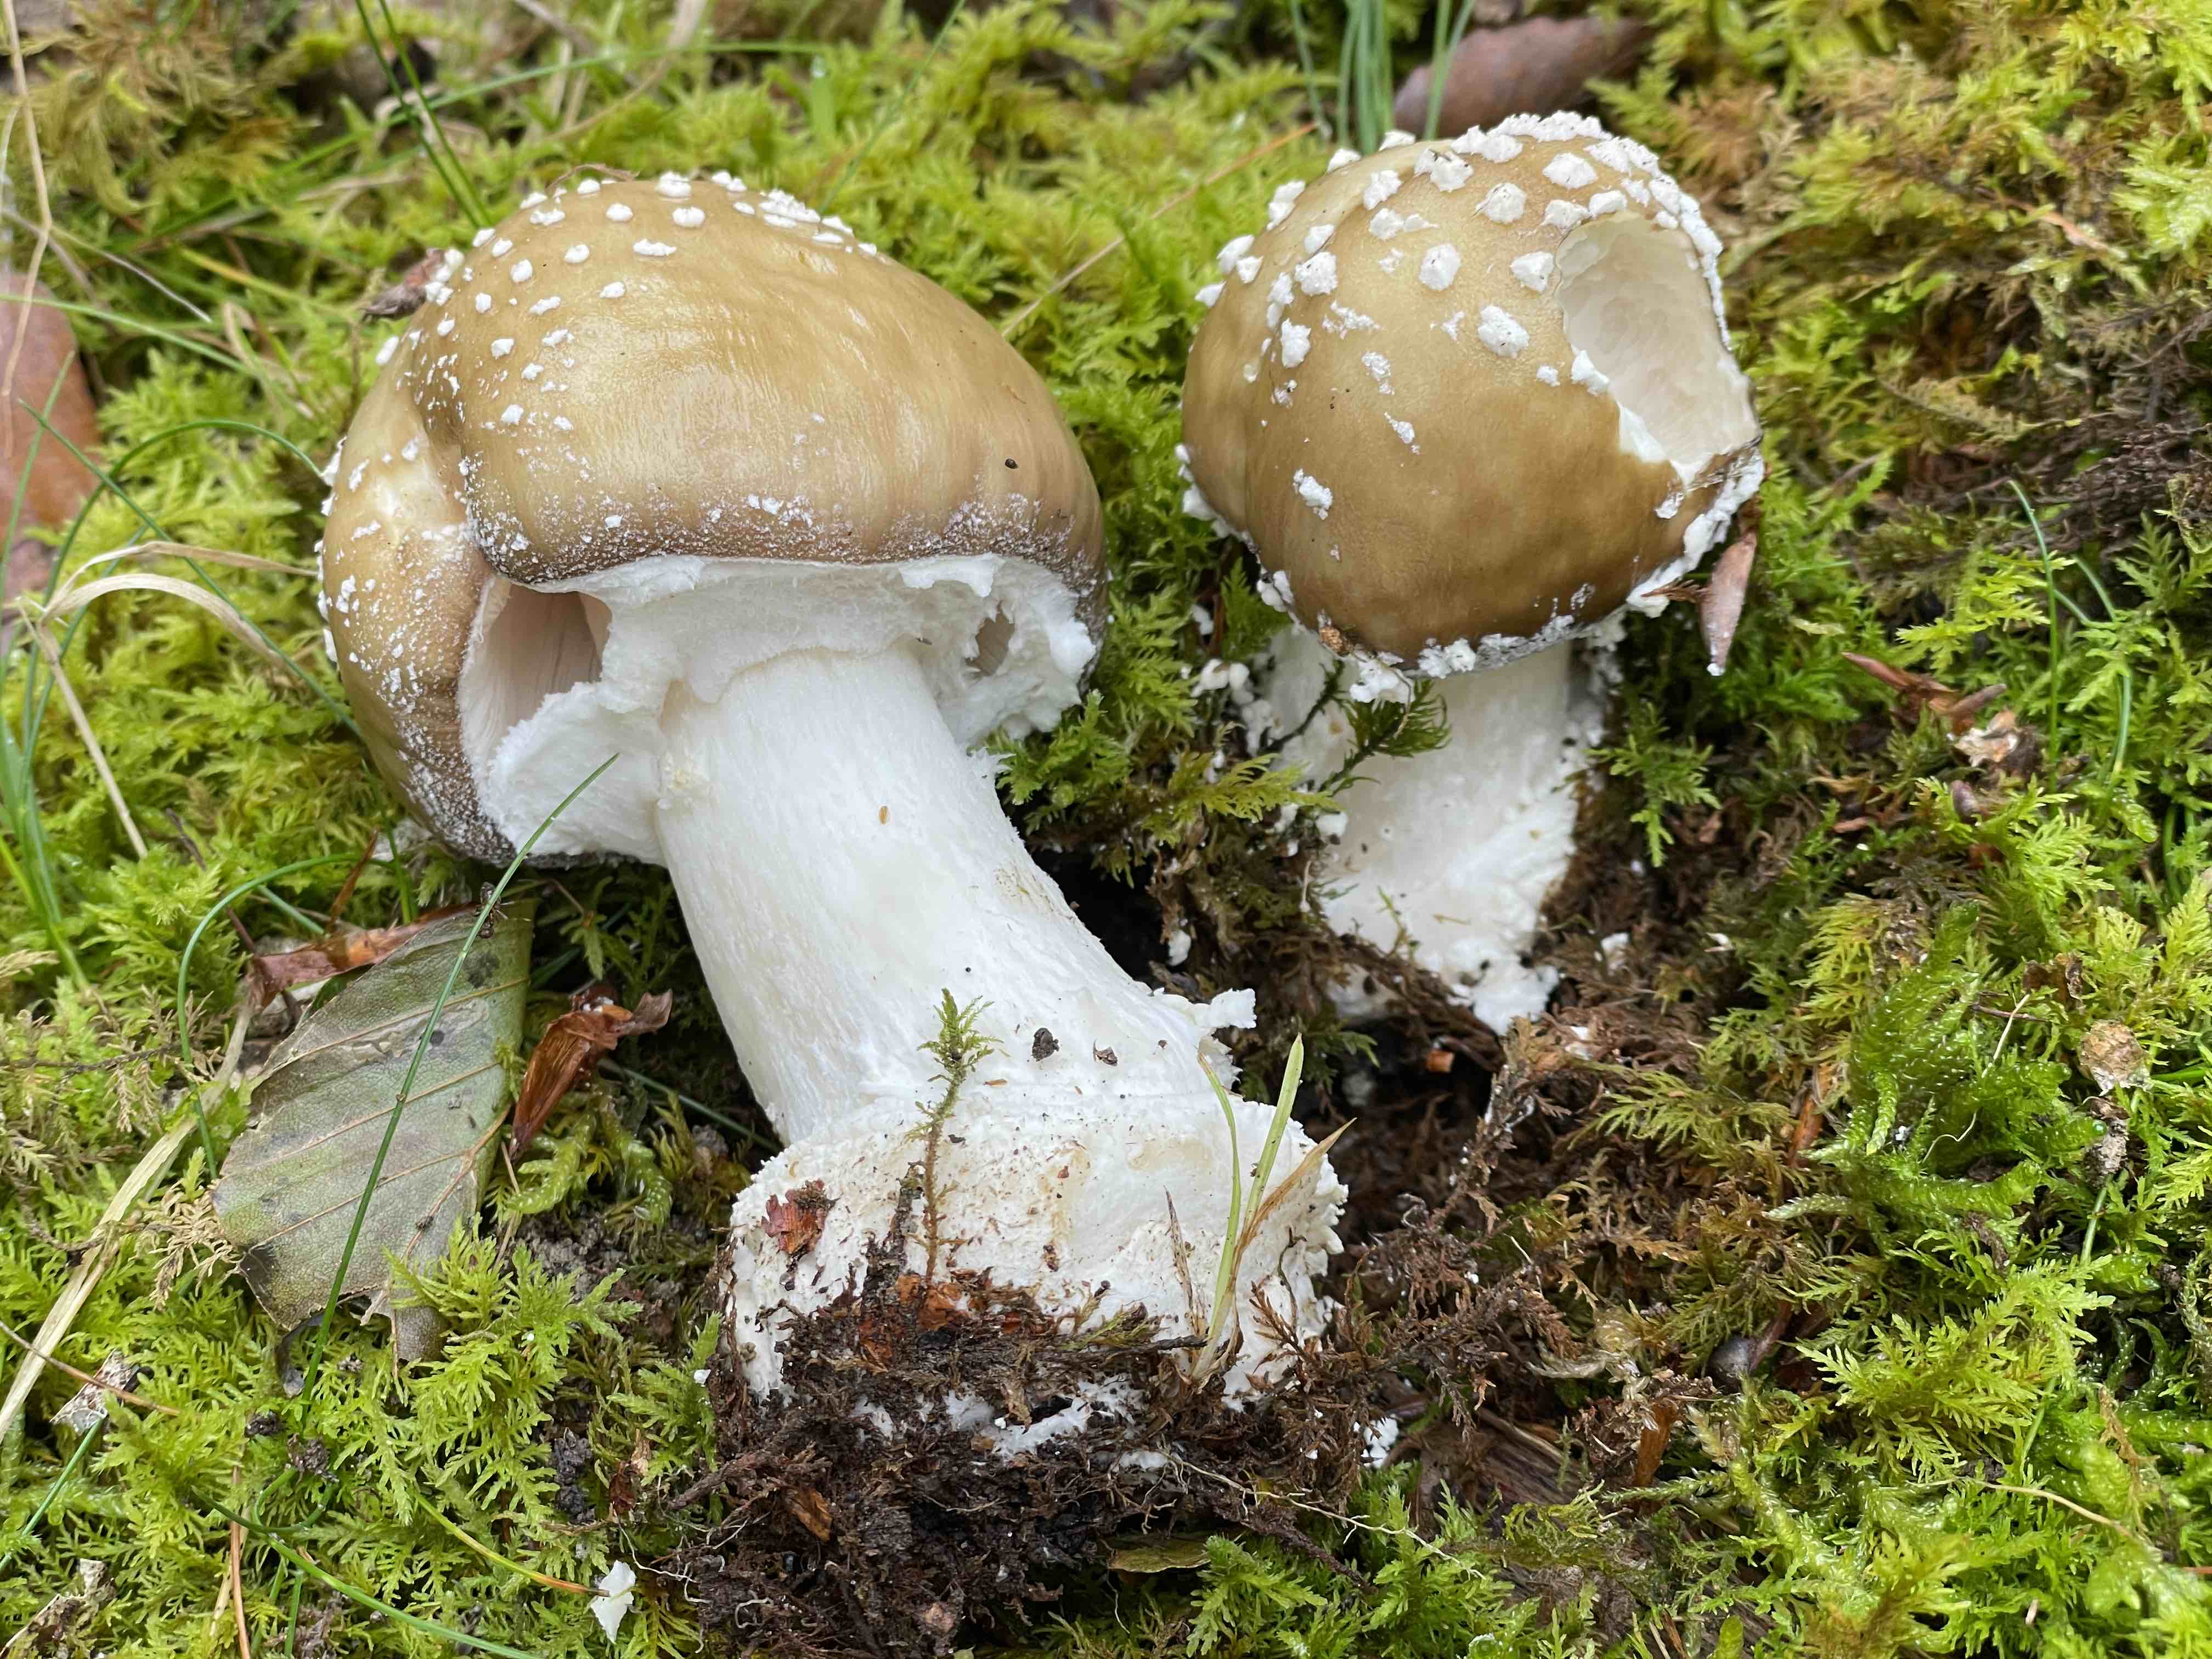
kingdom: Fungi
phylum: Basidiomycota
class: Agaricomycetes
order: Agaricales
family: Amanitaceae
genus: Amanita
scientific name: Amanita pantherina
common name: panter-fluesvamp
